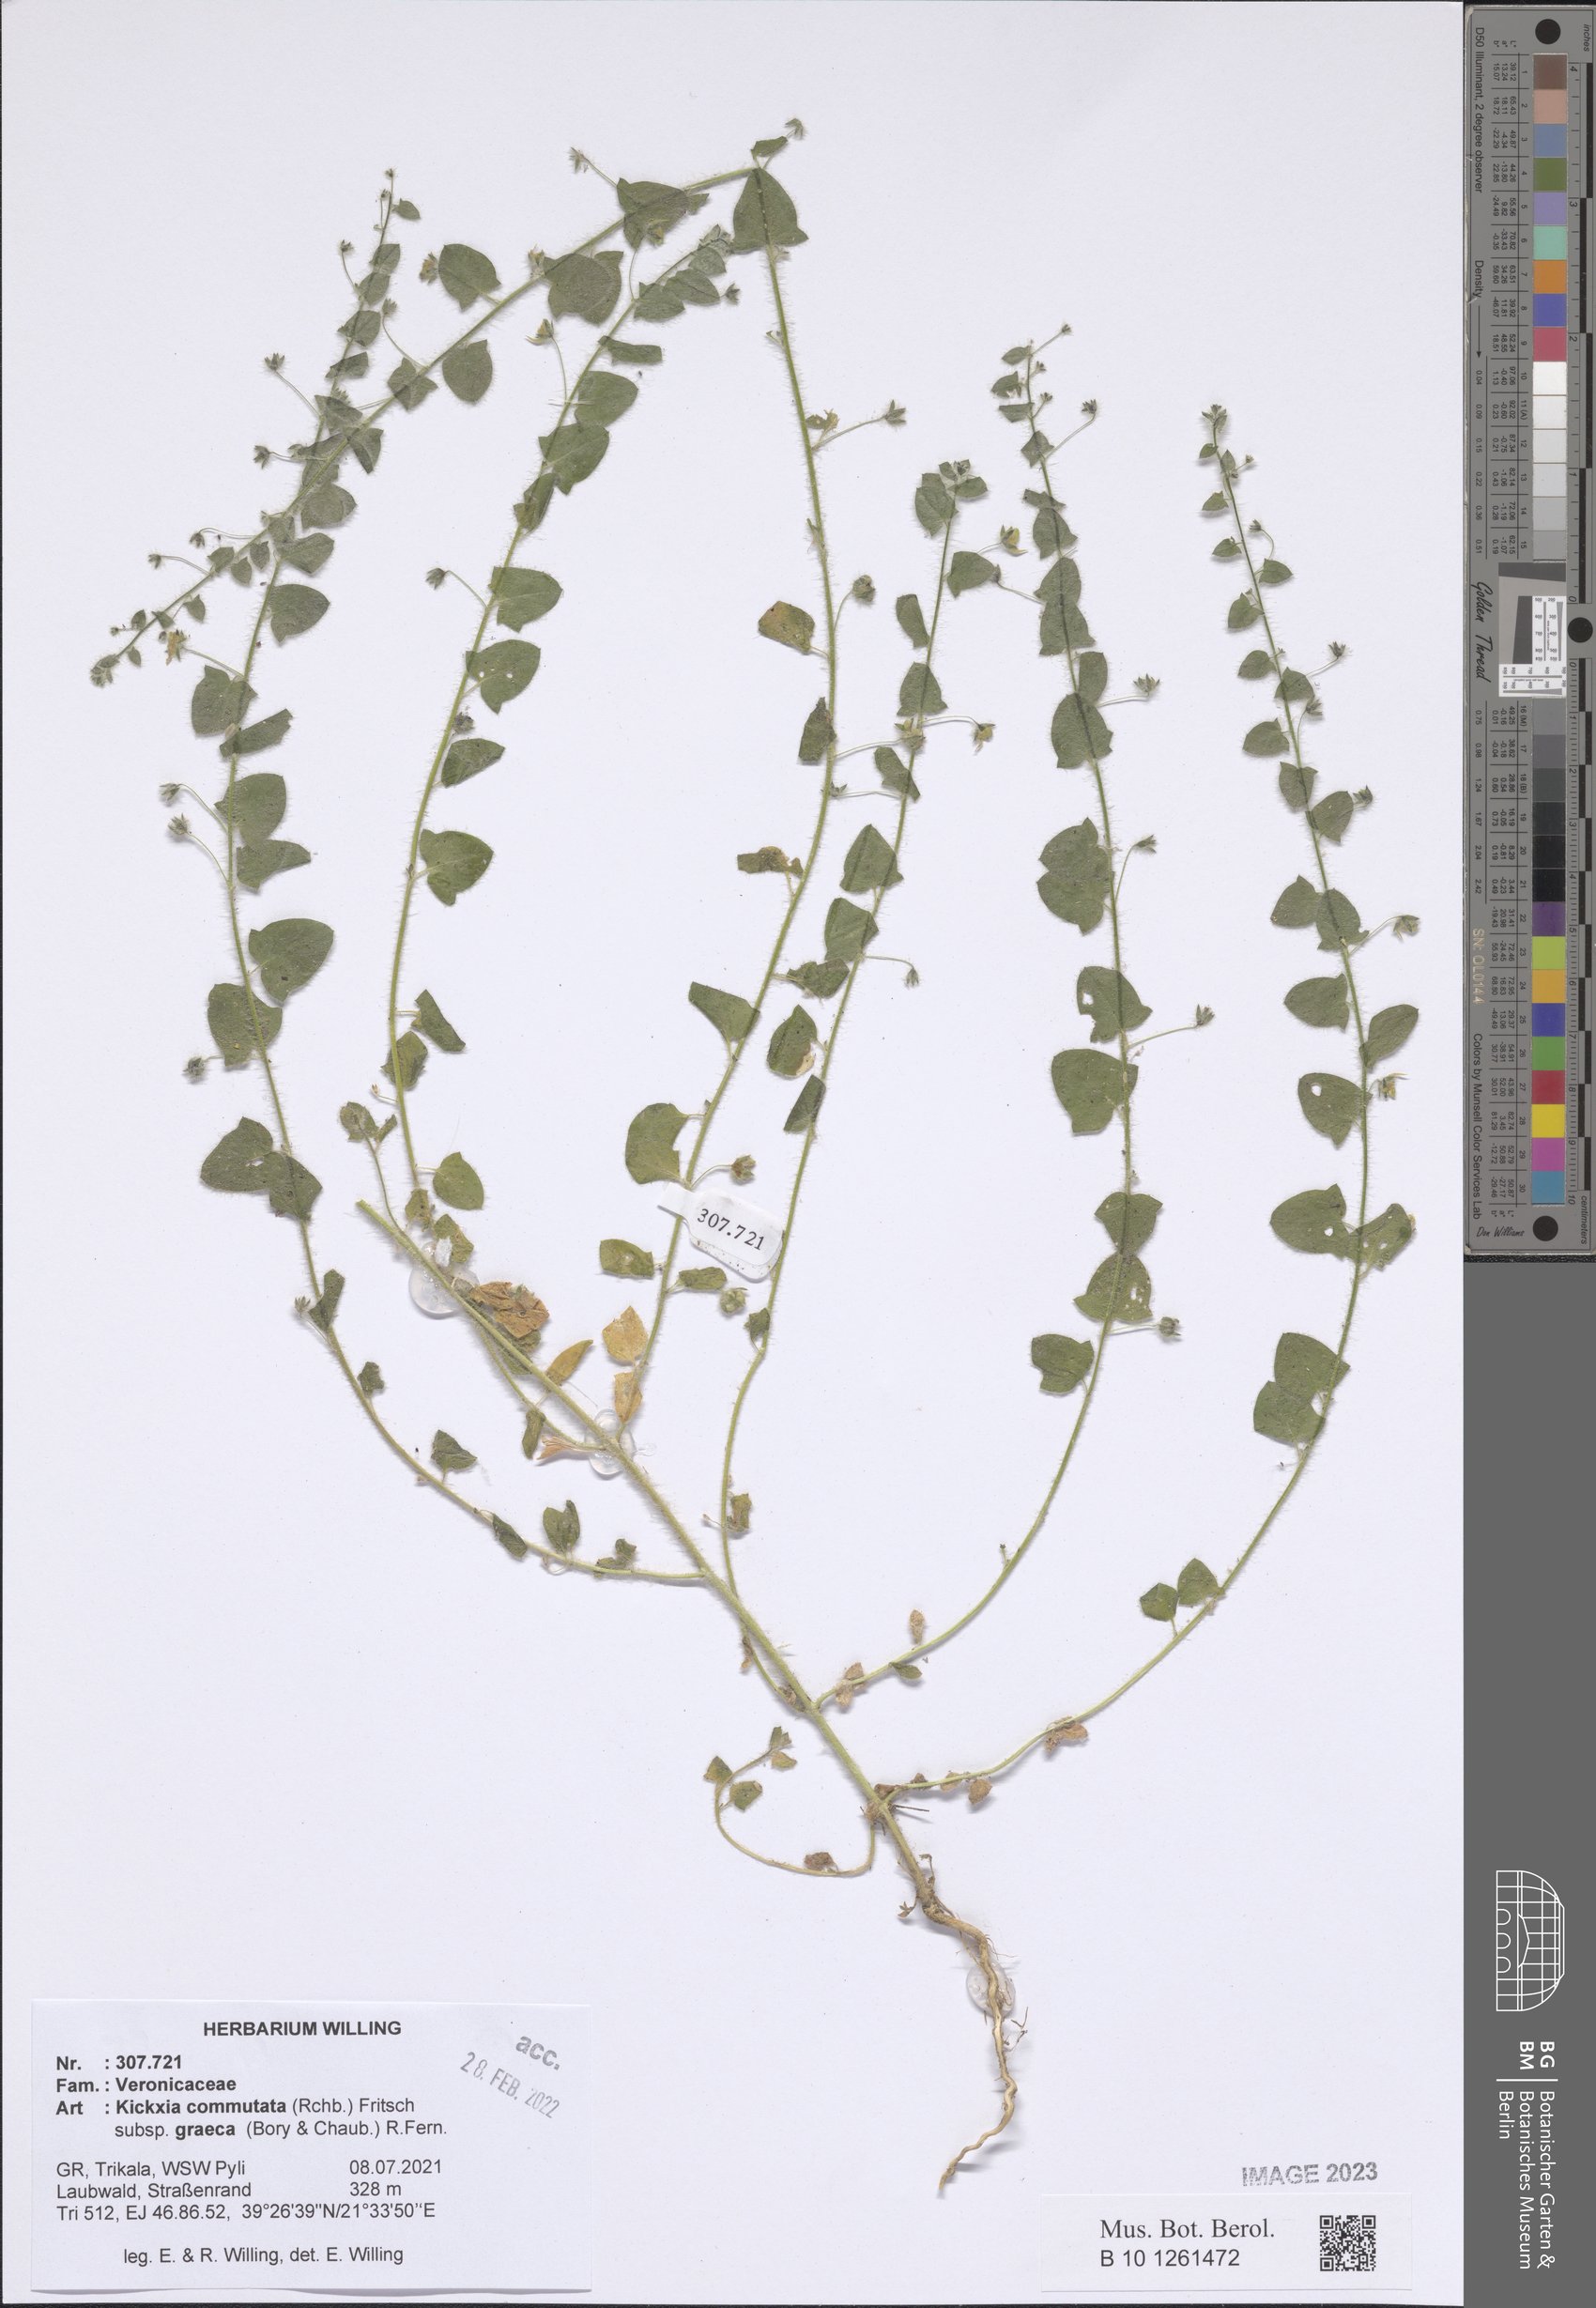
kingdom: Plantae
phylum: Tracheophyta
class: Magnoliopsida
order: Lamiales
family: Plantaginaceae
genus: Kickxia
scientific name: Kickxia commutata
